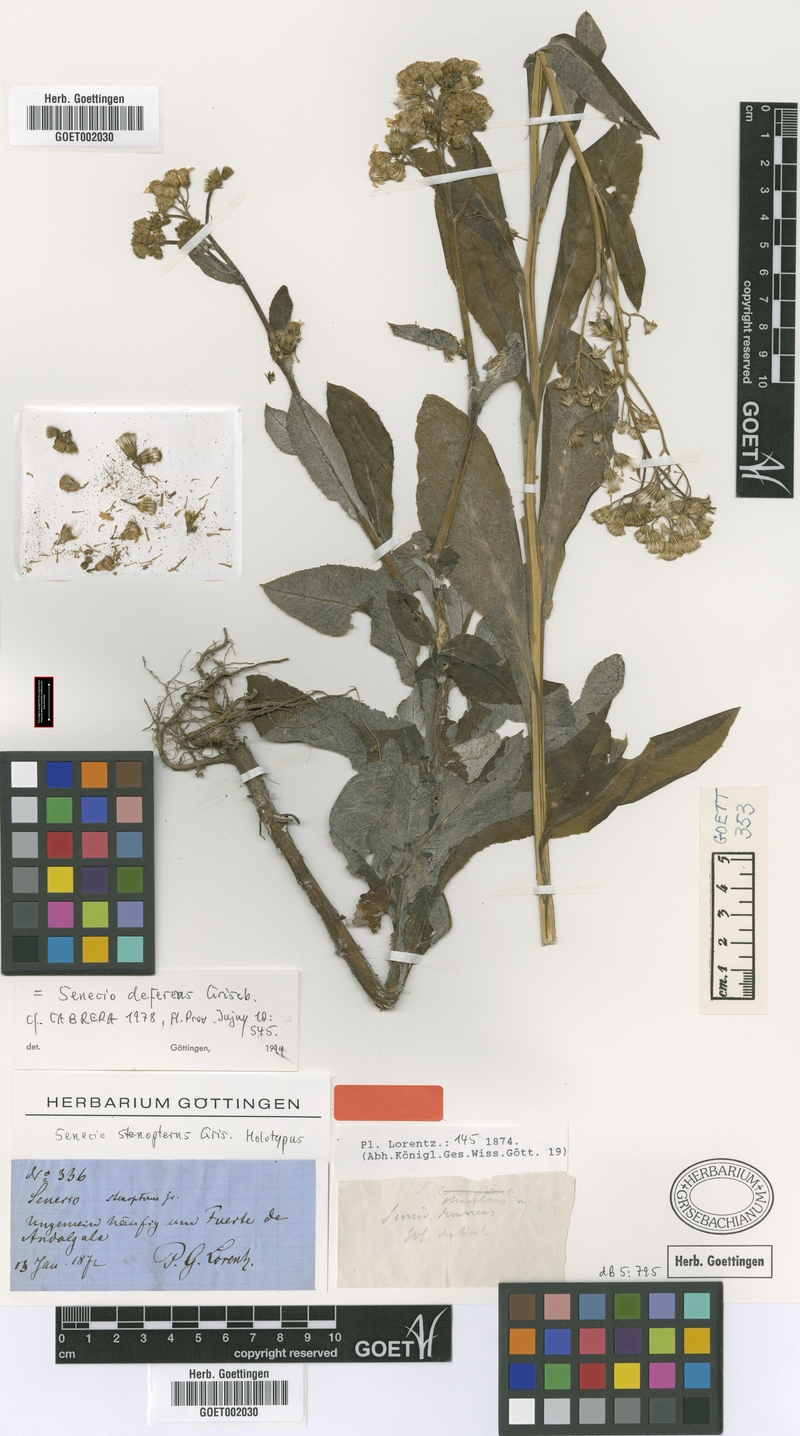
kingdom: Plantae
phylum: Tracheophyta
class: Magnoliopsida
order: Asterales
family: Asteraceae
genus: Senecio
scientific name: Senecio deferens
